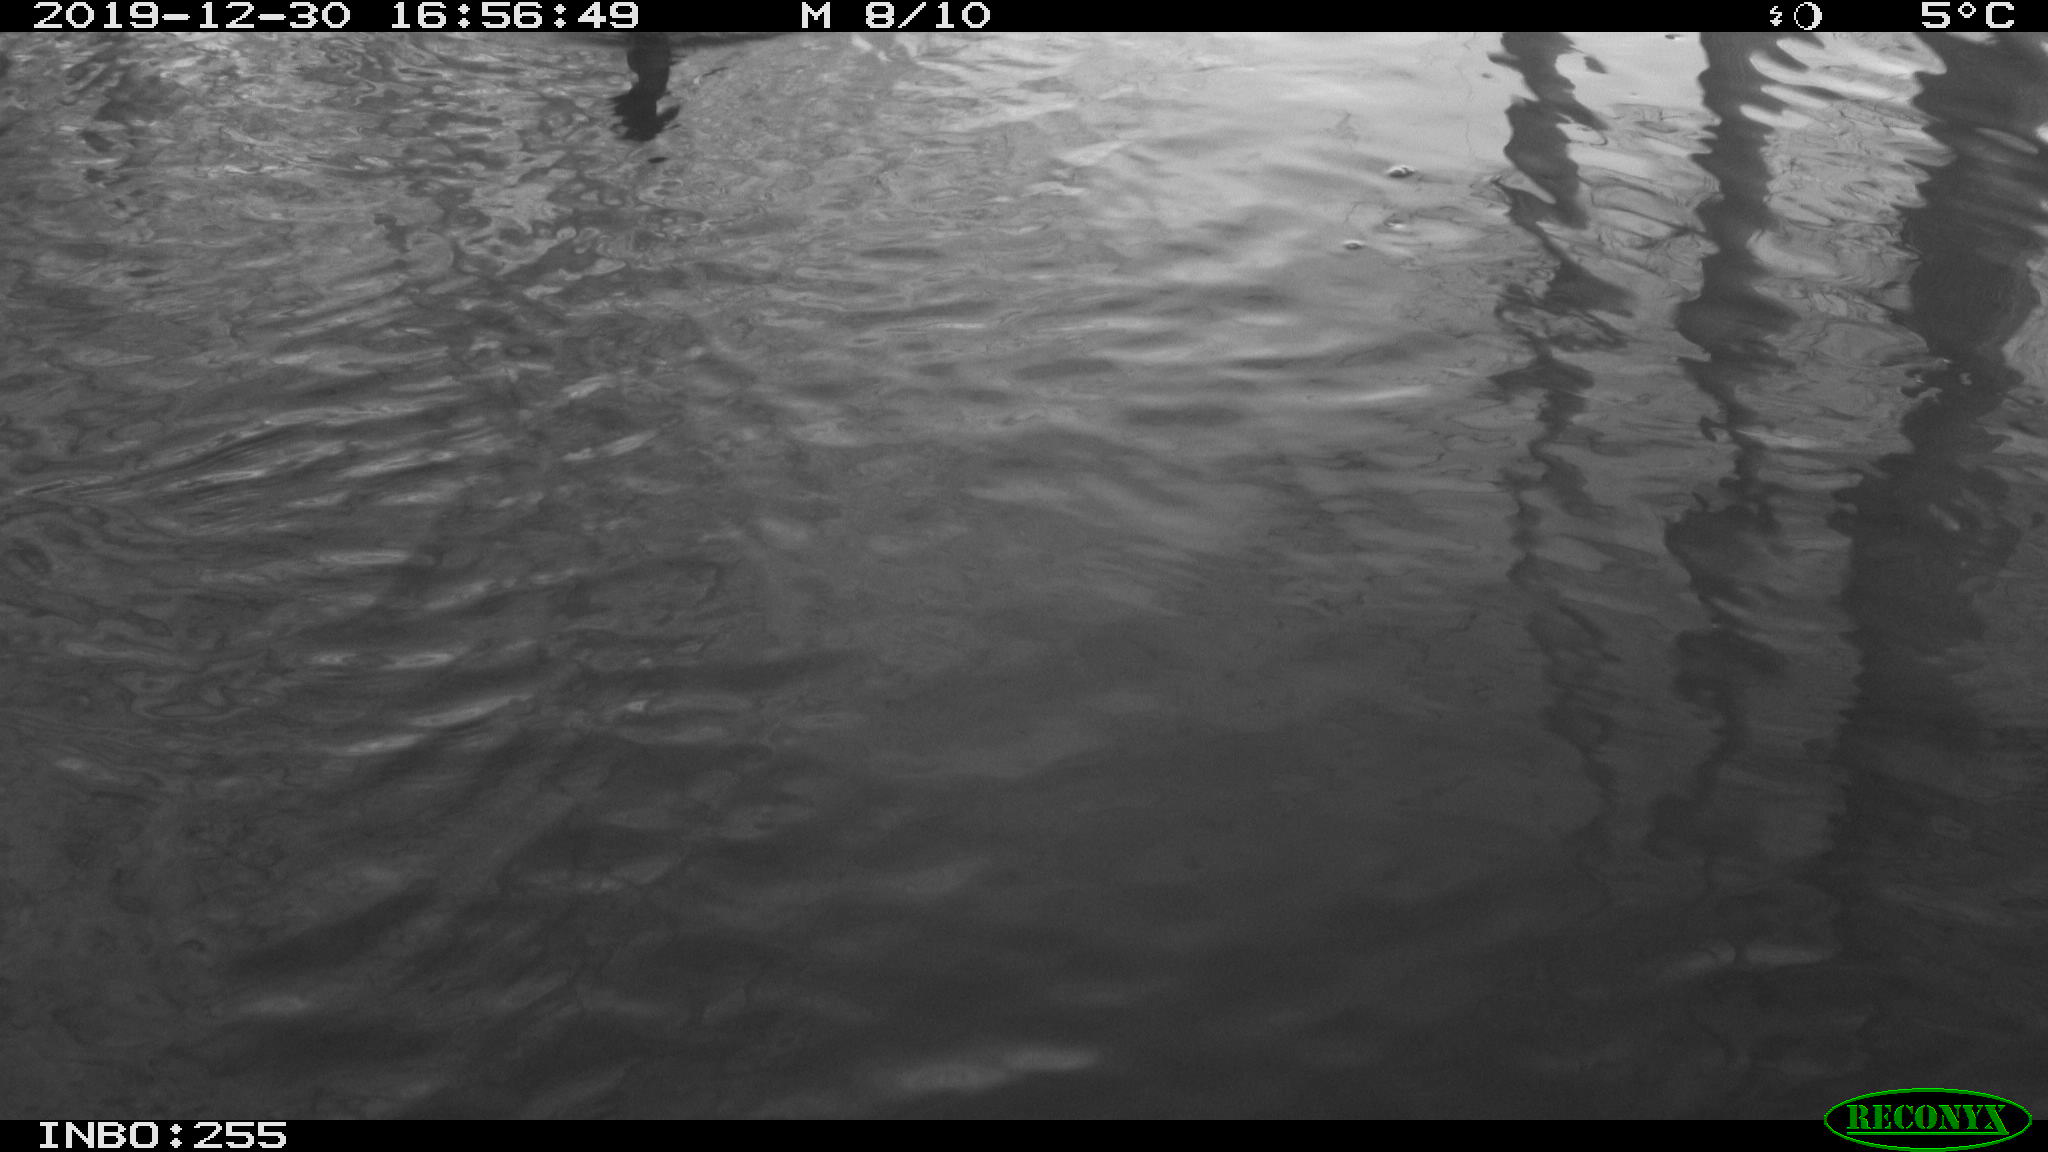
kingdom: Animalia
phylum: Chordata
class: Aves
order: Gruiformes
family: Rallidae
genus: Fulica
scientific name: Fulica atra
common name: Eurasian coot
